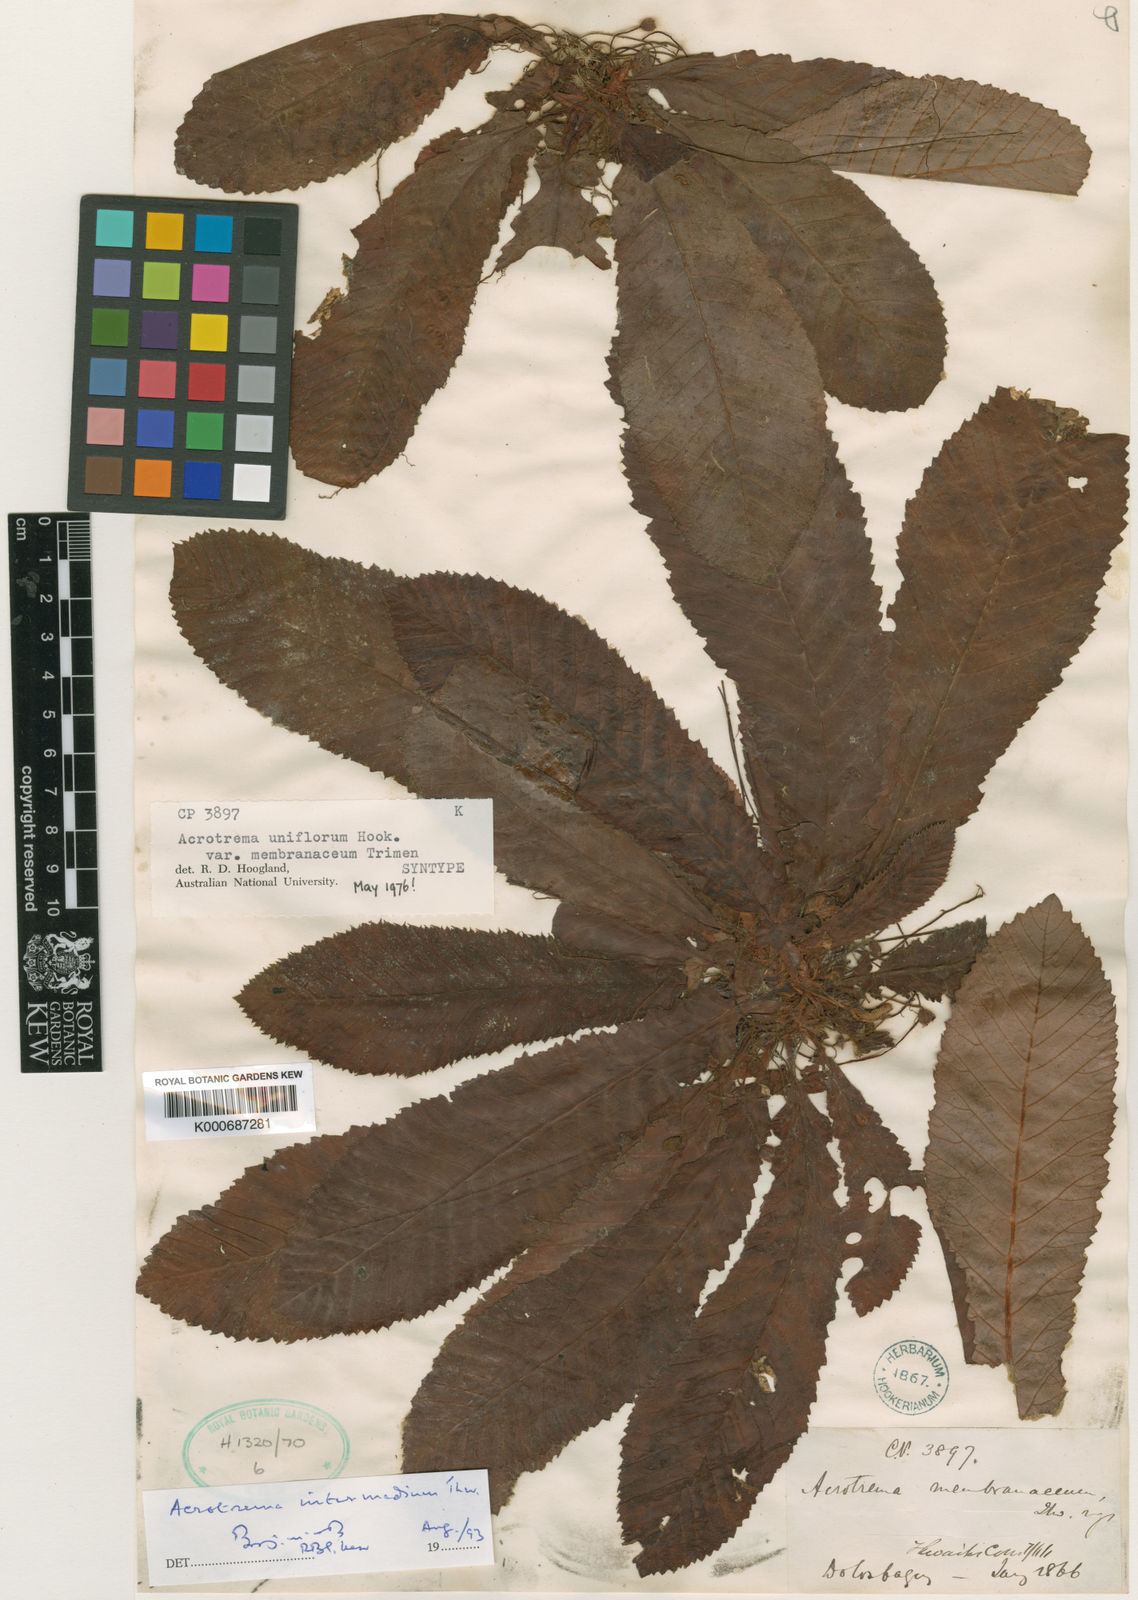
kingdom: Plantae
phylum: Tracheophyta
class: Magnoliopsida
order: Dilleniales
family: Dilleniaceae
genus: Acrotrema
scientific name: Acrotrema
